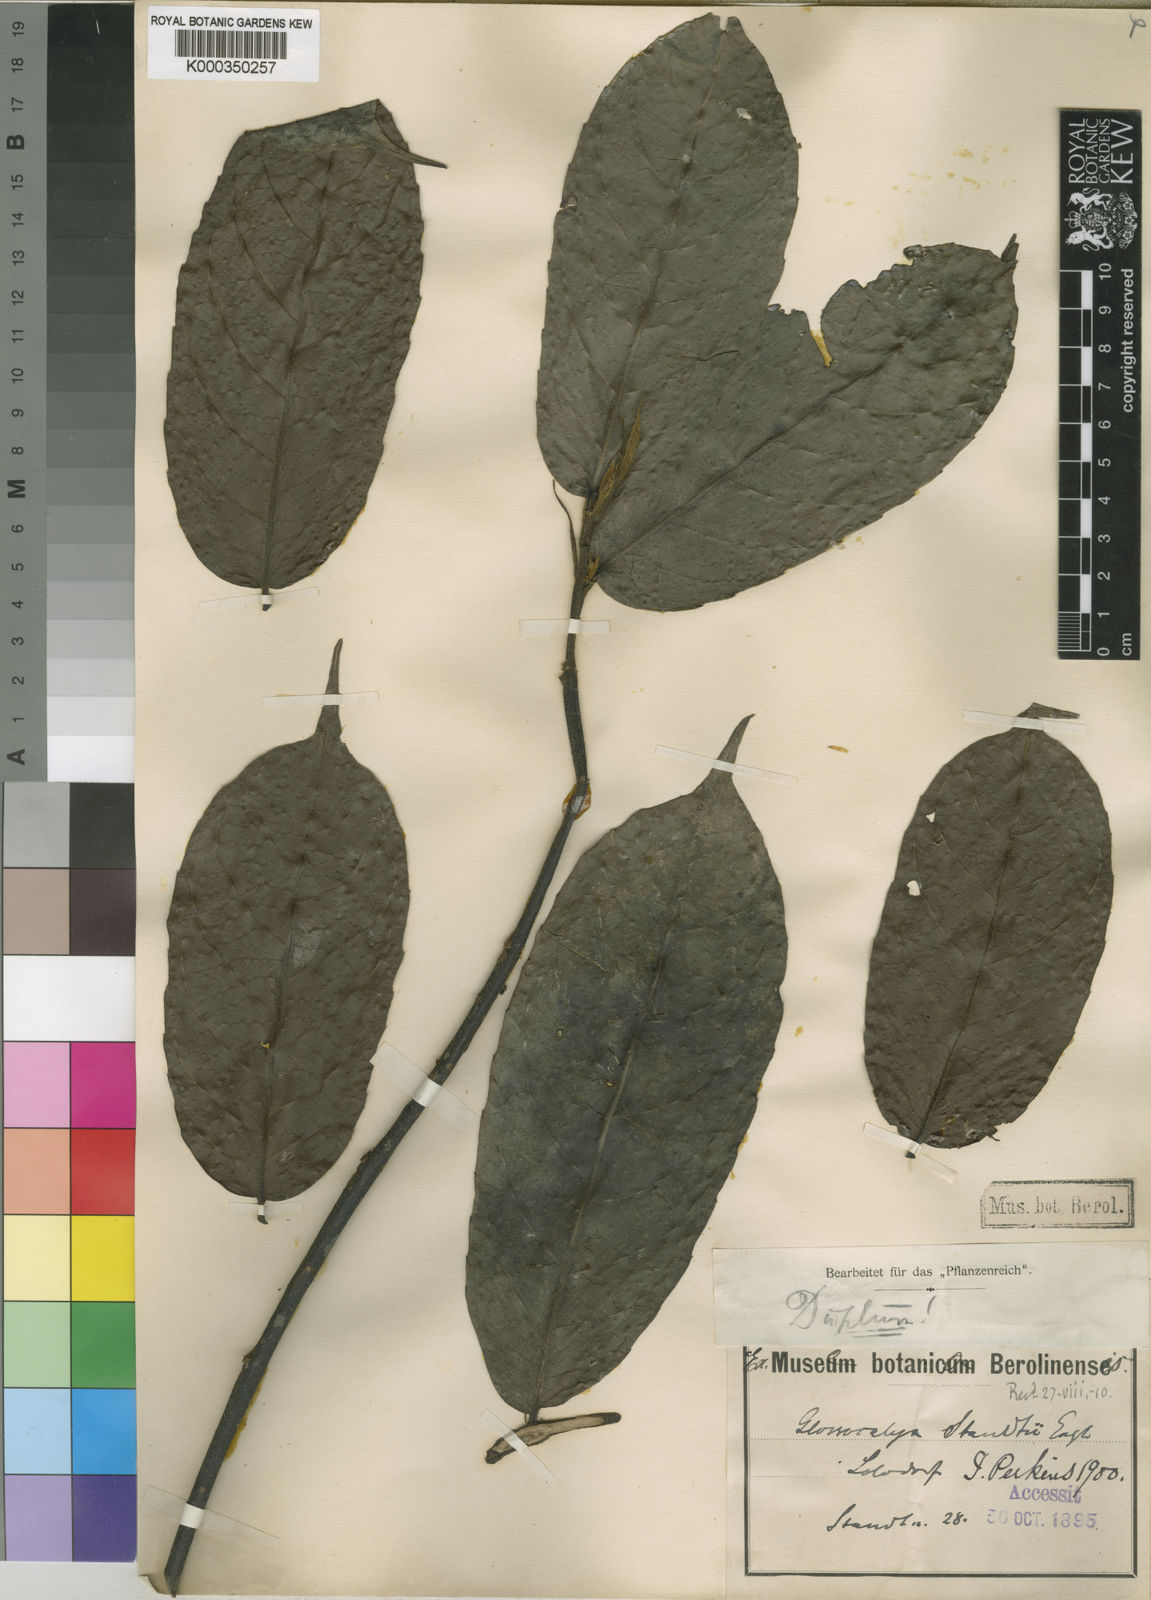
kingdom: Plantae
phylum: Tracheophyta
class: Magnoliopsida
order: Laurales
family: Siparunaceae
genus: Glossocalyx
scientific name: Glossocalyx brevipes
